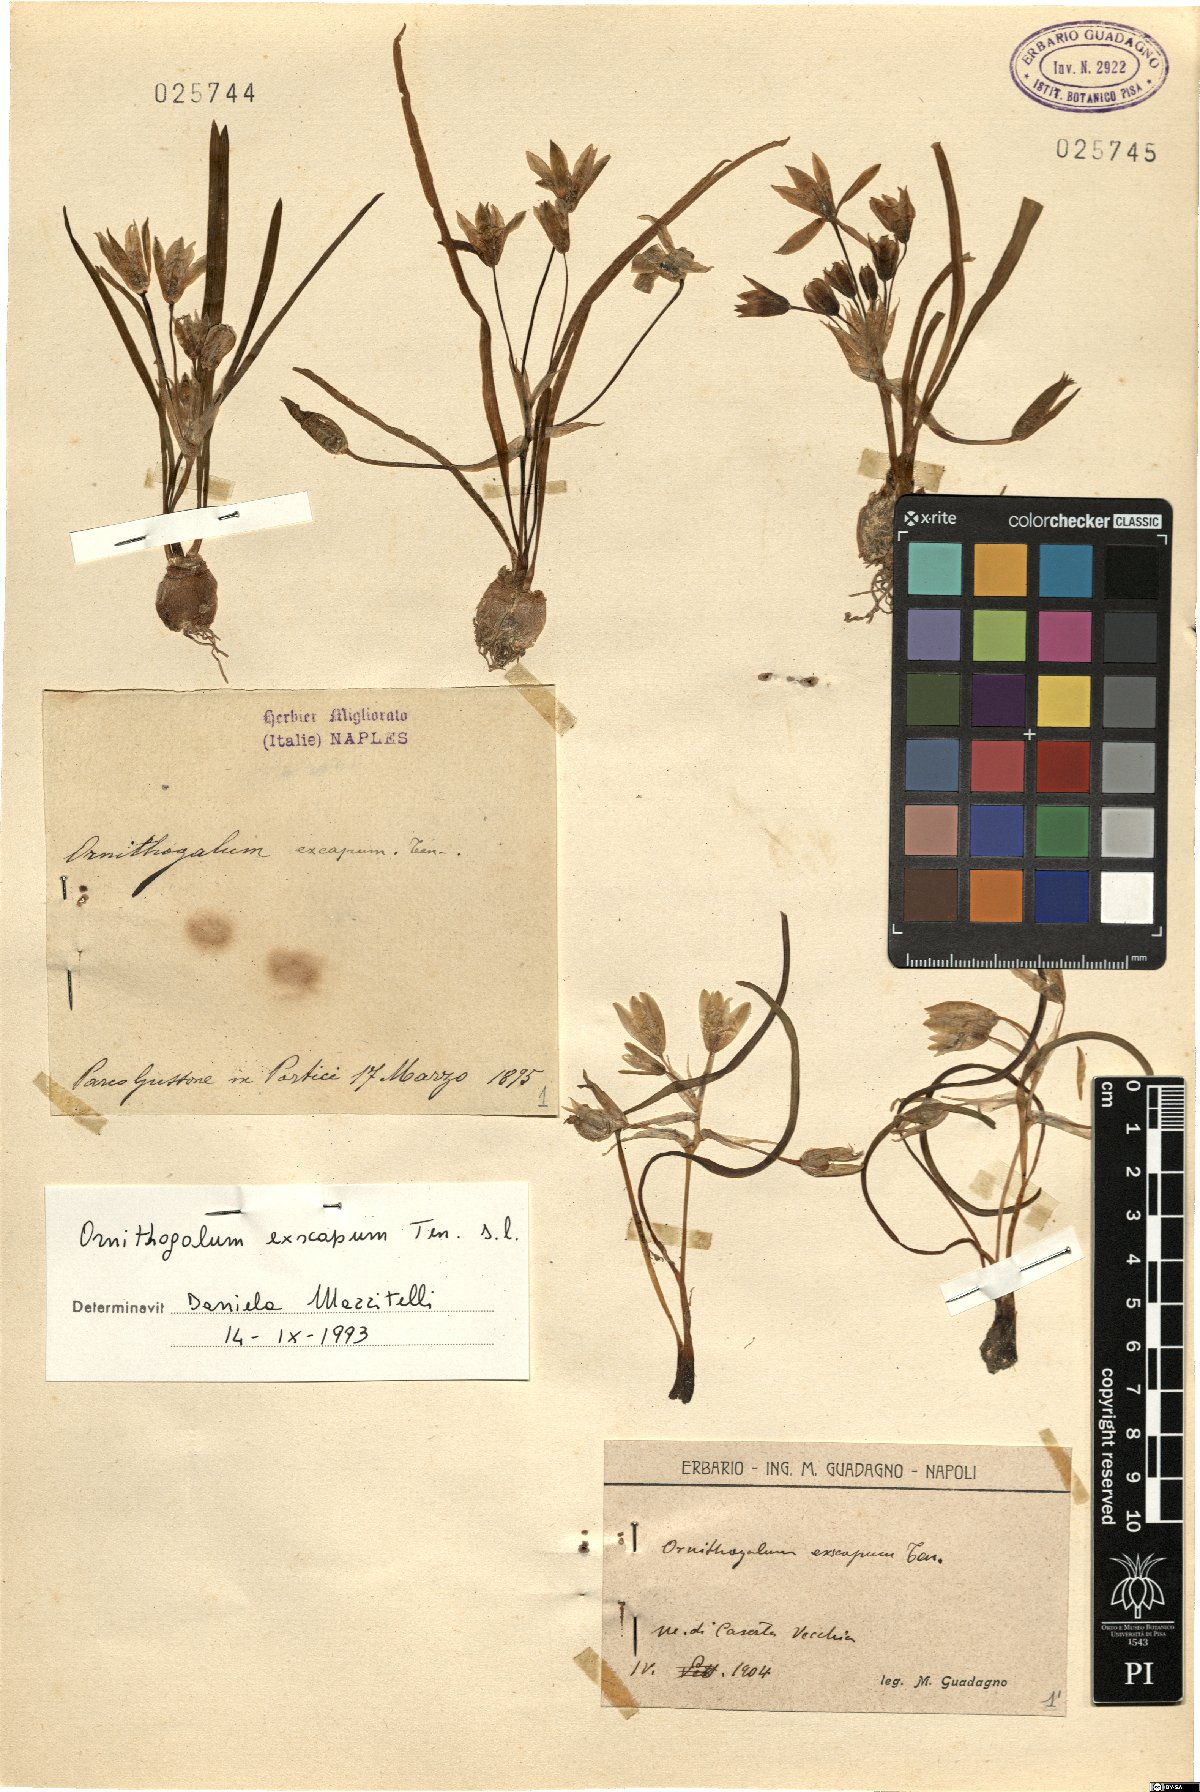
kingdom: Plantae
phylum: Tracheophyta
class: Liliopsida
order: Asparagales
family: Asparagaceae
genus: Ornithogalum
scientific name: Ornithogalum exscapum
